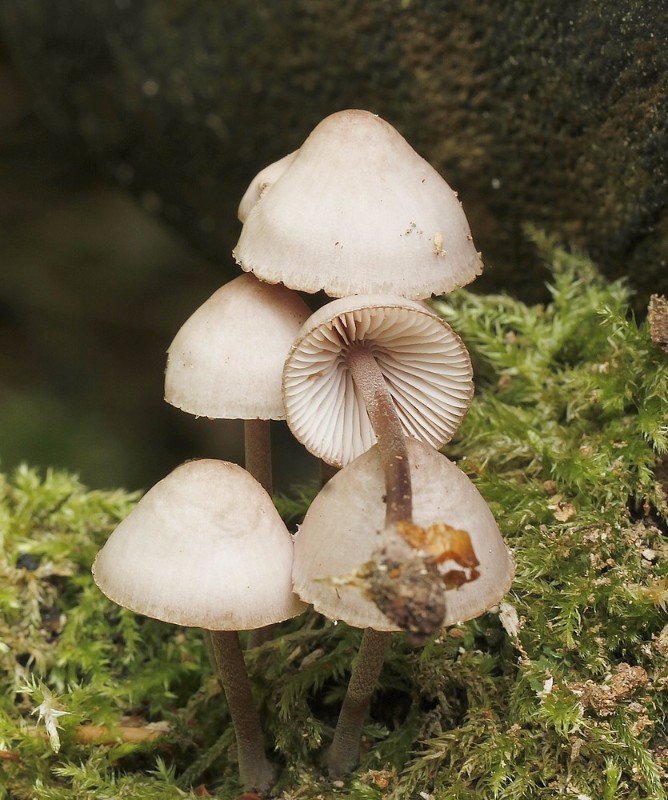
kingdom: Fungi
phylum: Basidiomycota
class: Agaricomycetes
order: Agaricales
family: Mycenaceae
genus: Mycena
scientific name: Mycena haematopus
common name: blødende huesvamp
